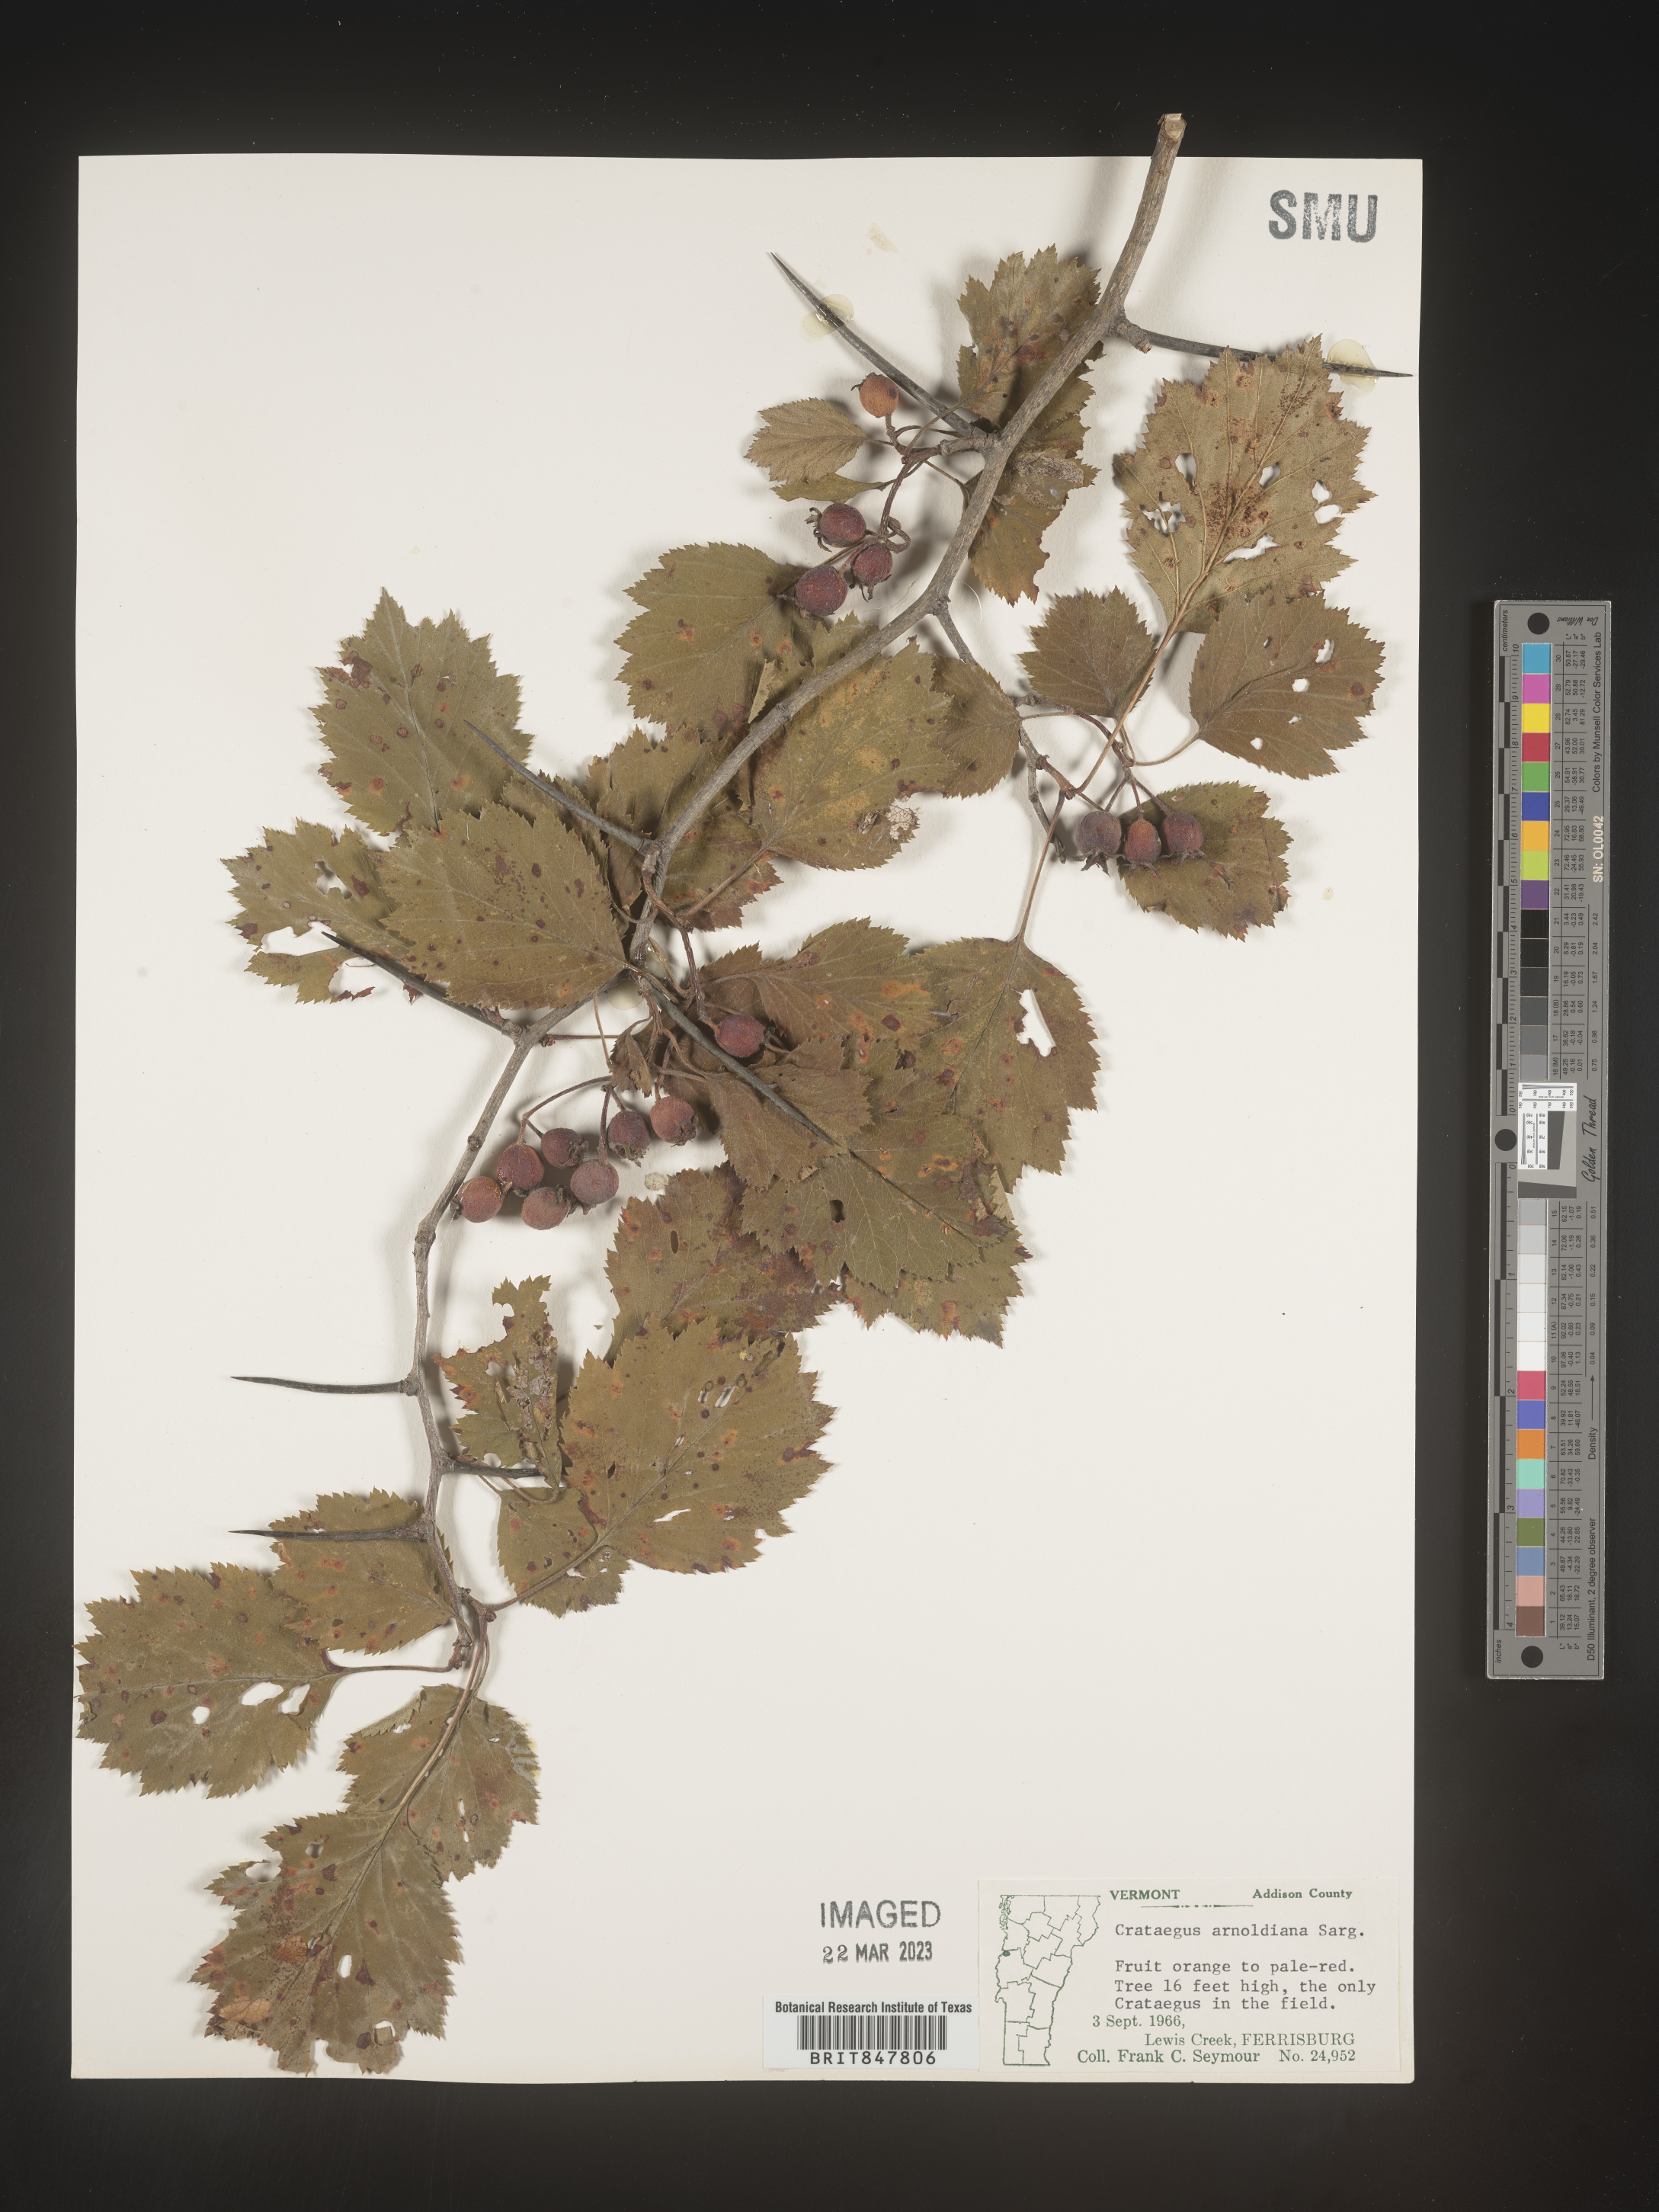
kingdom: Plantae
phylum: Tracheophyta
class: Magnoliopsida
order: Rosales
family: Rosaceae
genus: Crataegus
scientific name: Crataegus
